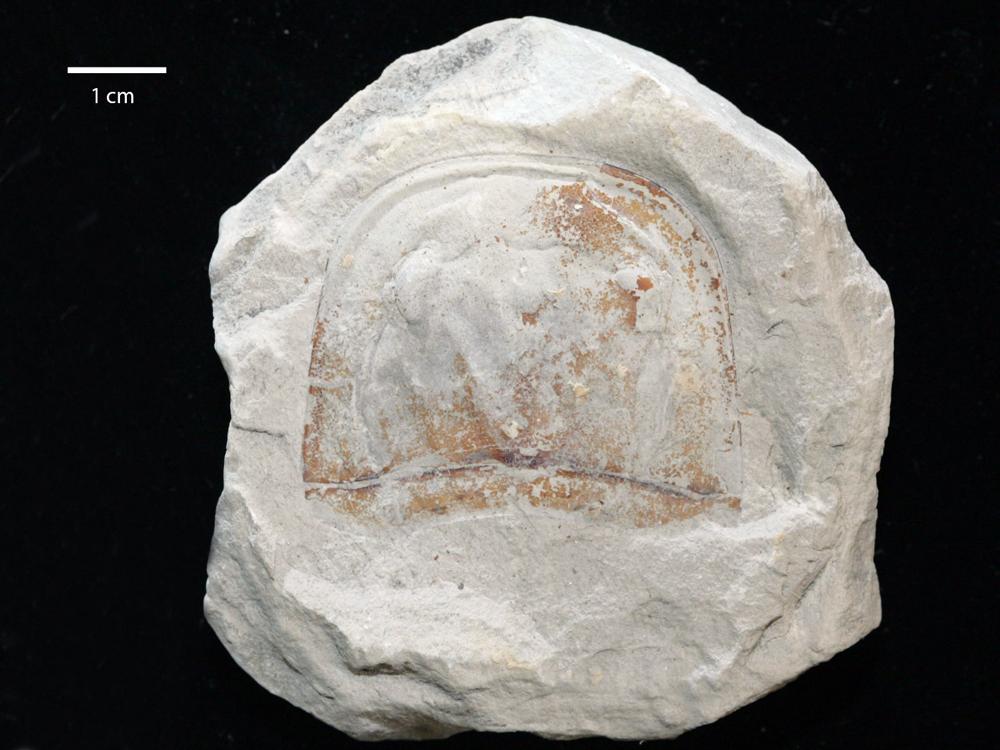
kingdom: Animalia
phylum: Arthropoda
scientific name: Arthropoda
